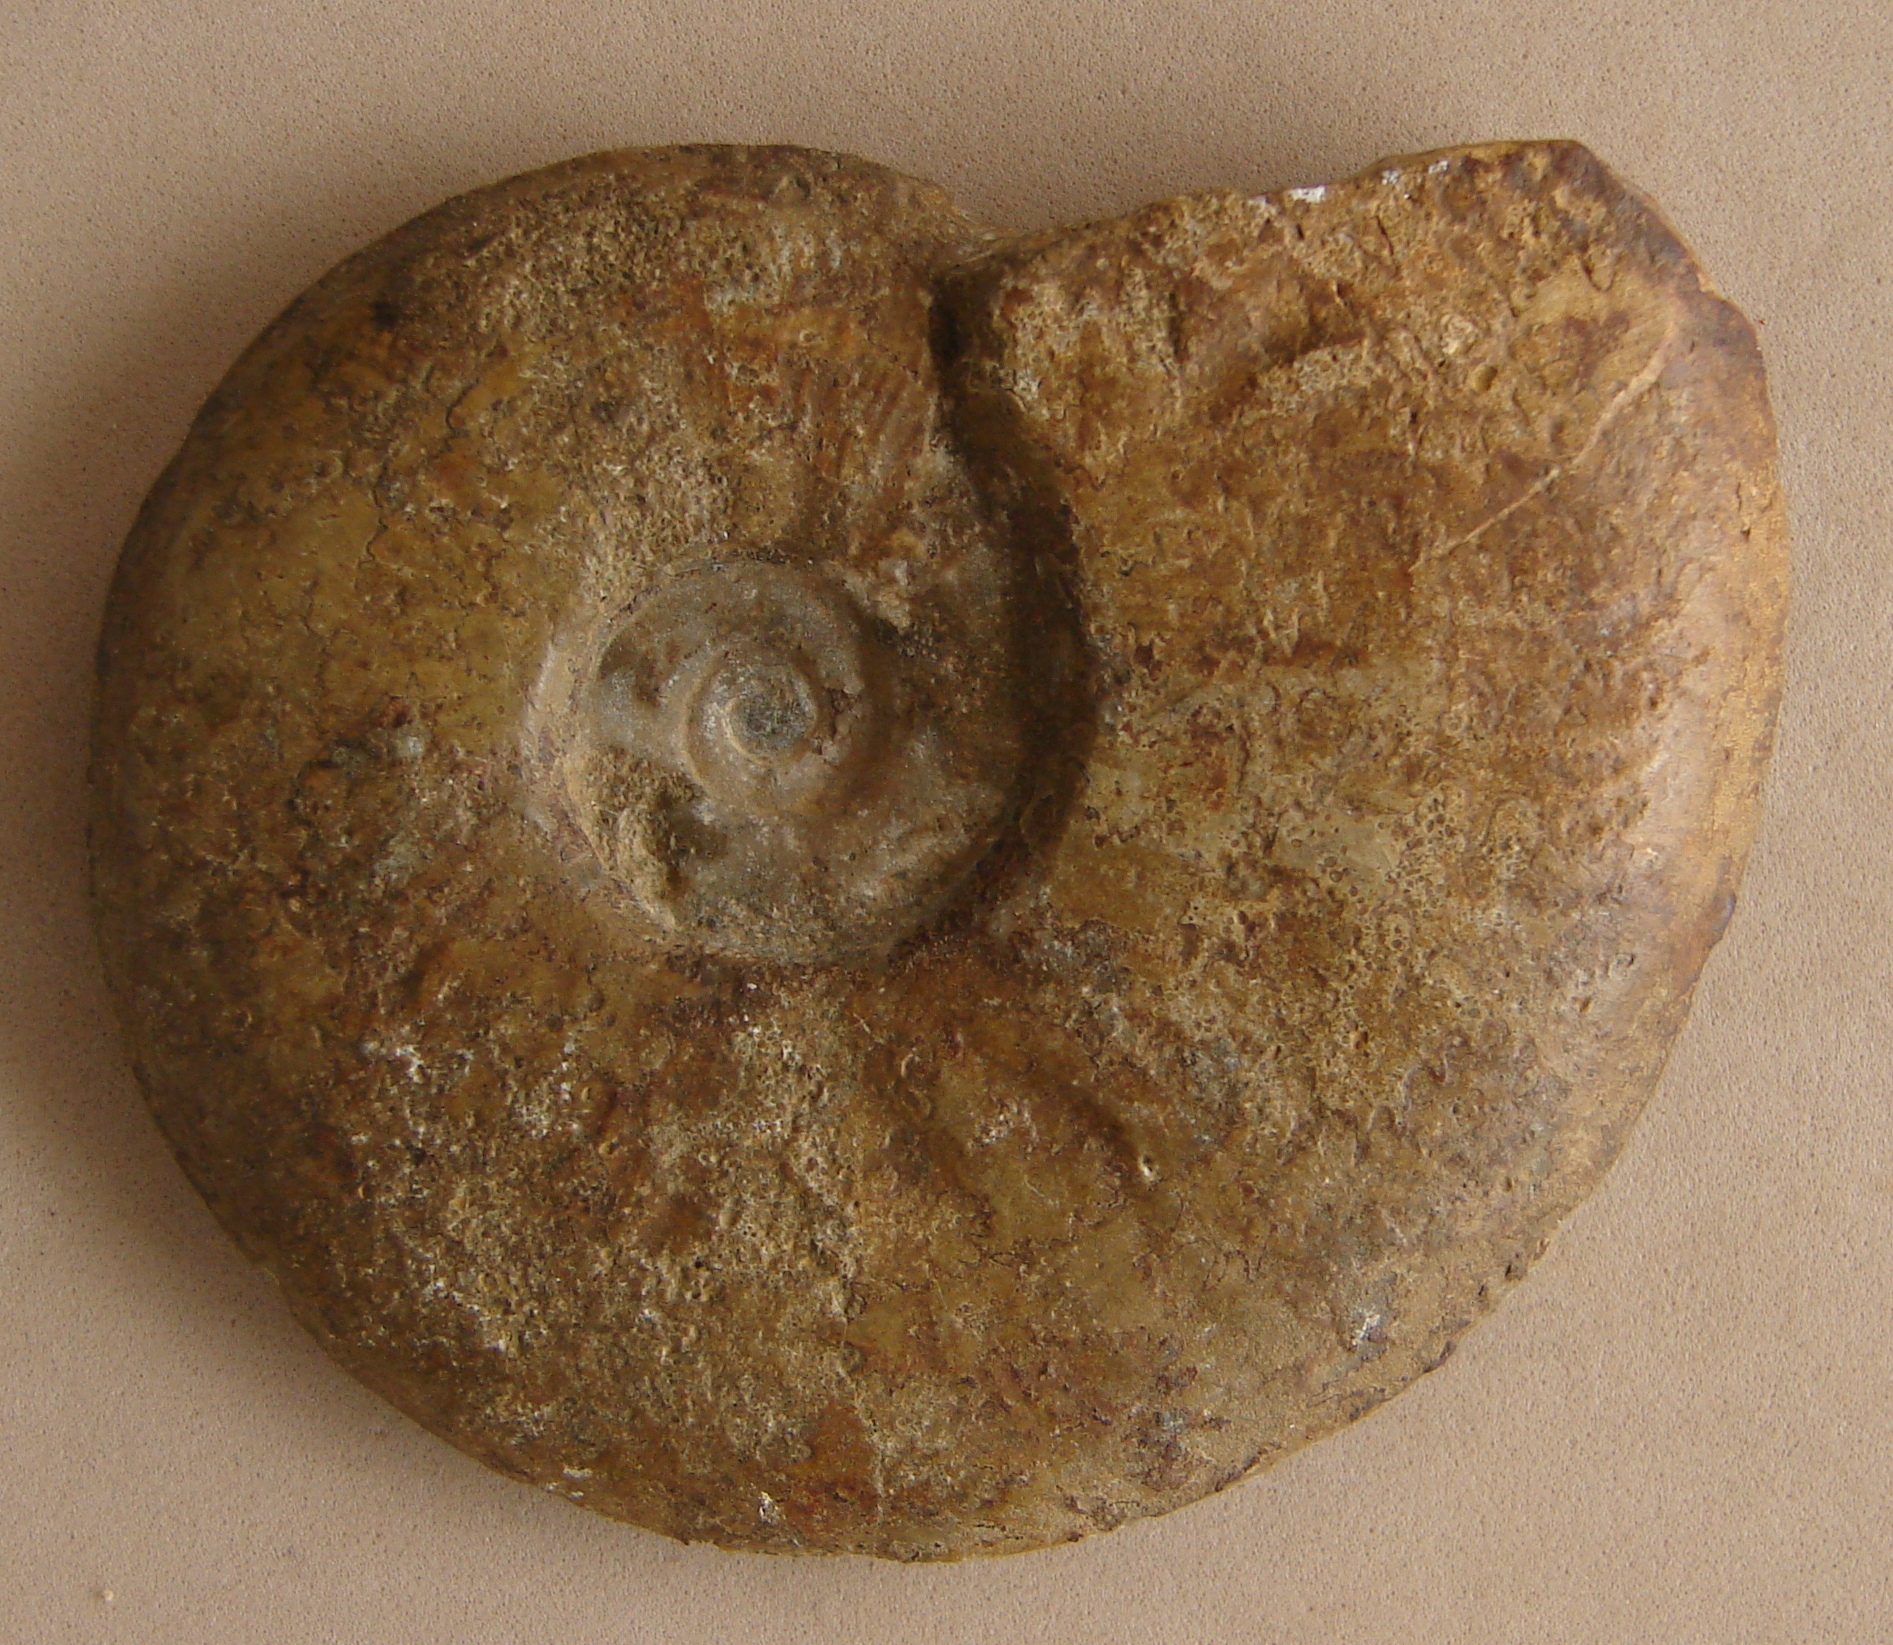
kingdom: Animalia
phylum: Mollusca
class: Cephalopoda
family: Hildoceratidae
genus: Pleydellia
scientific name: Pleydellia buckmani
